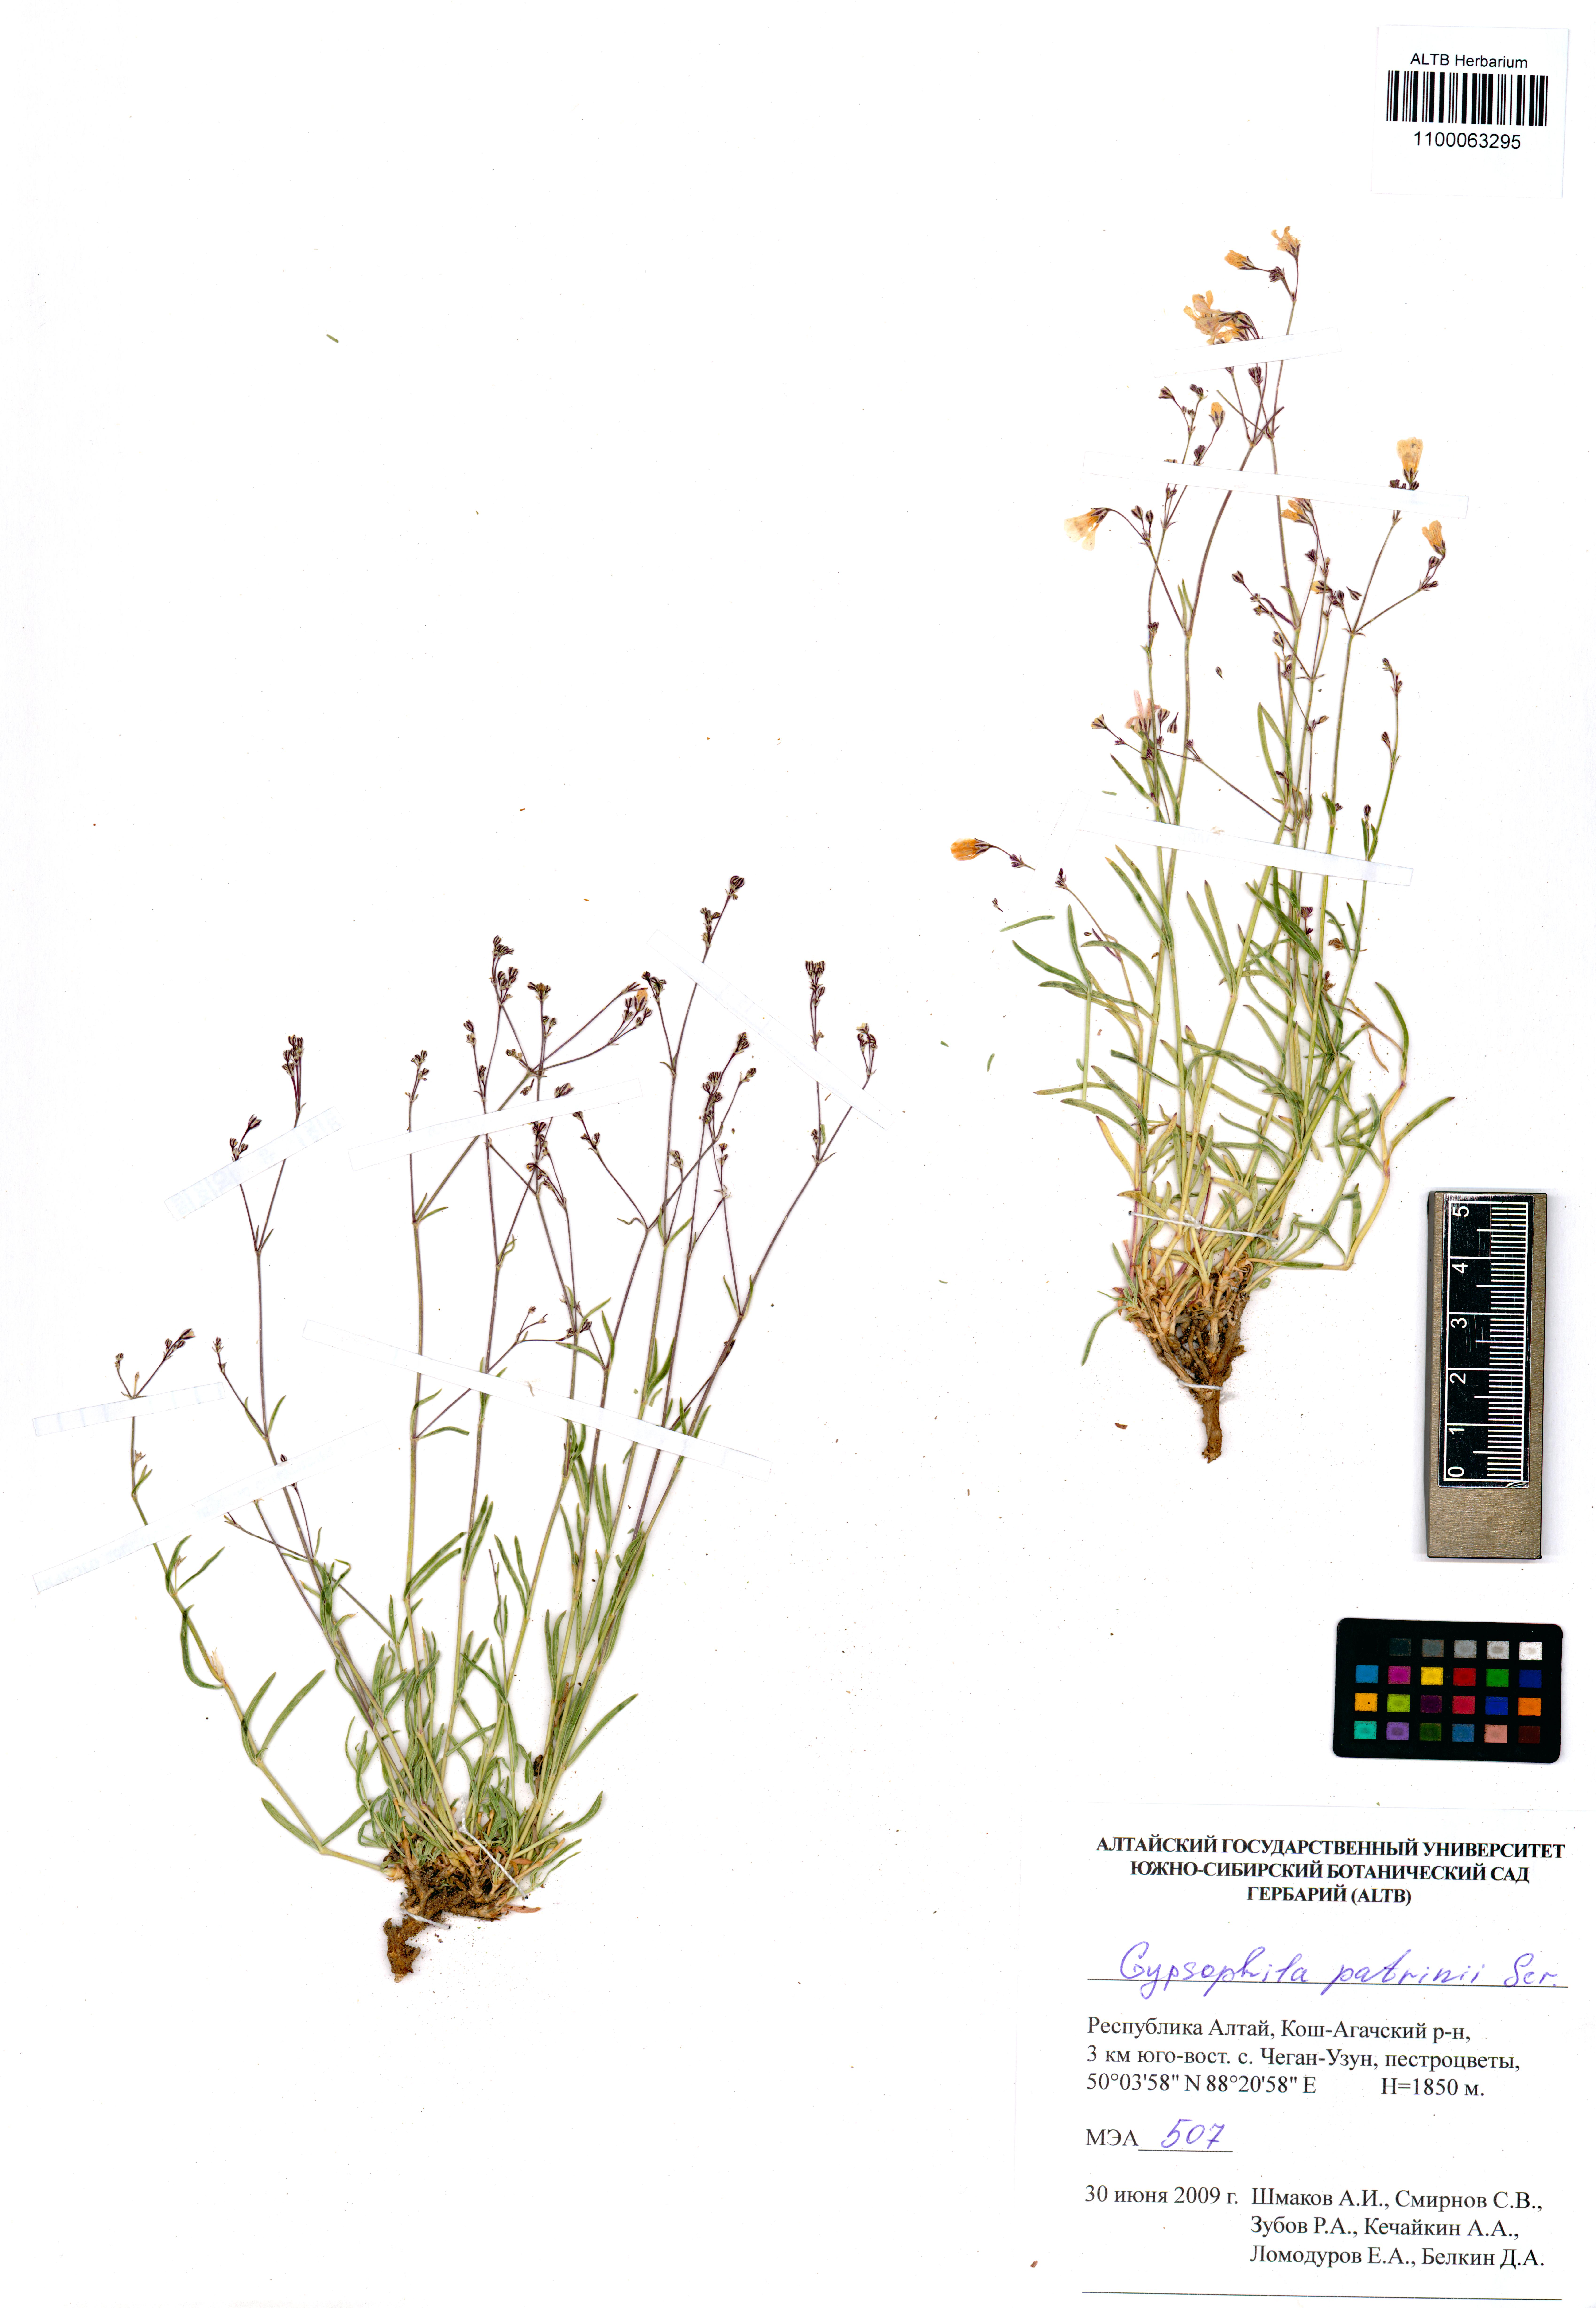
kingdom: Plantae
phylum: Tracheophyta
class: Magnoliopsida
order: Caryophyllales
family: Caryophyllaceae
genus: Gypsophila
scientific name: Gypsophila patrinii
